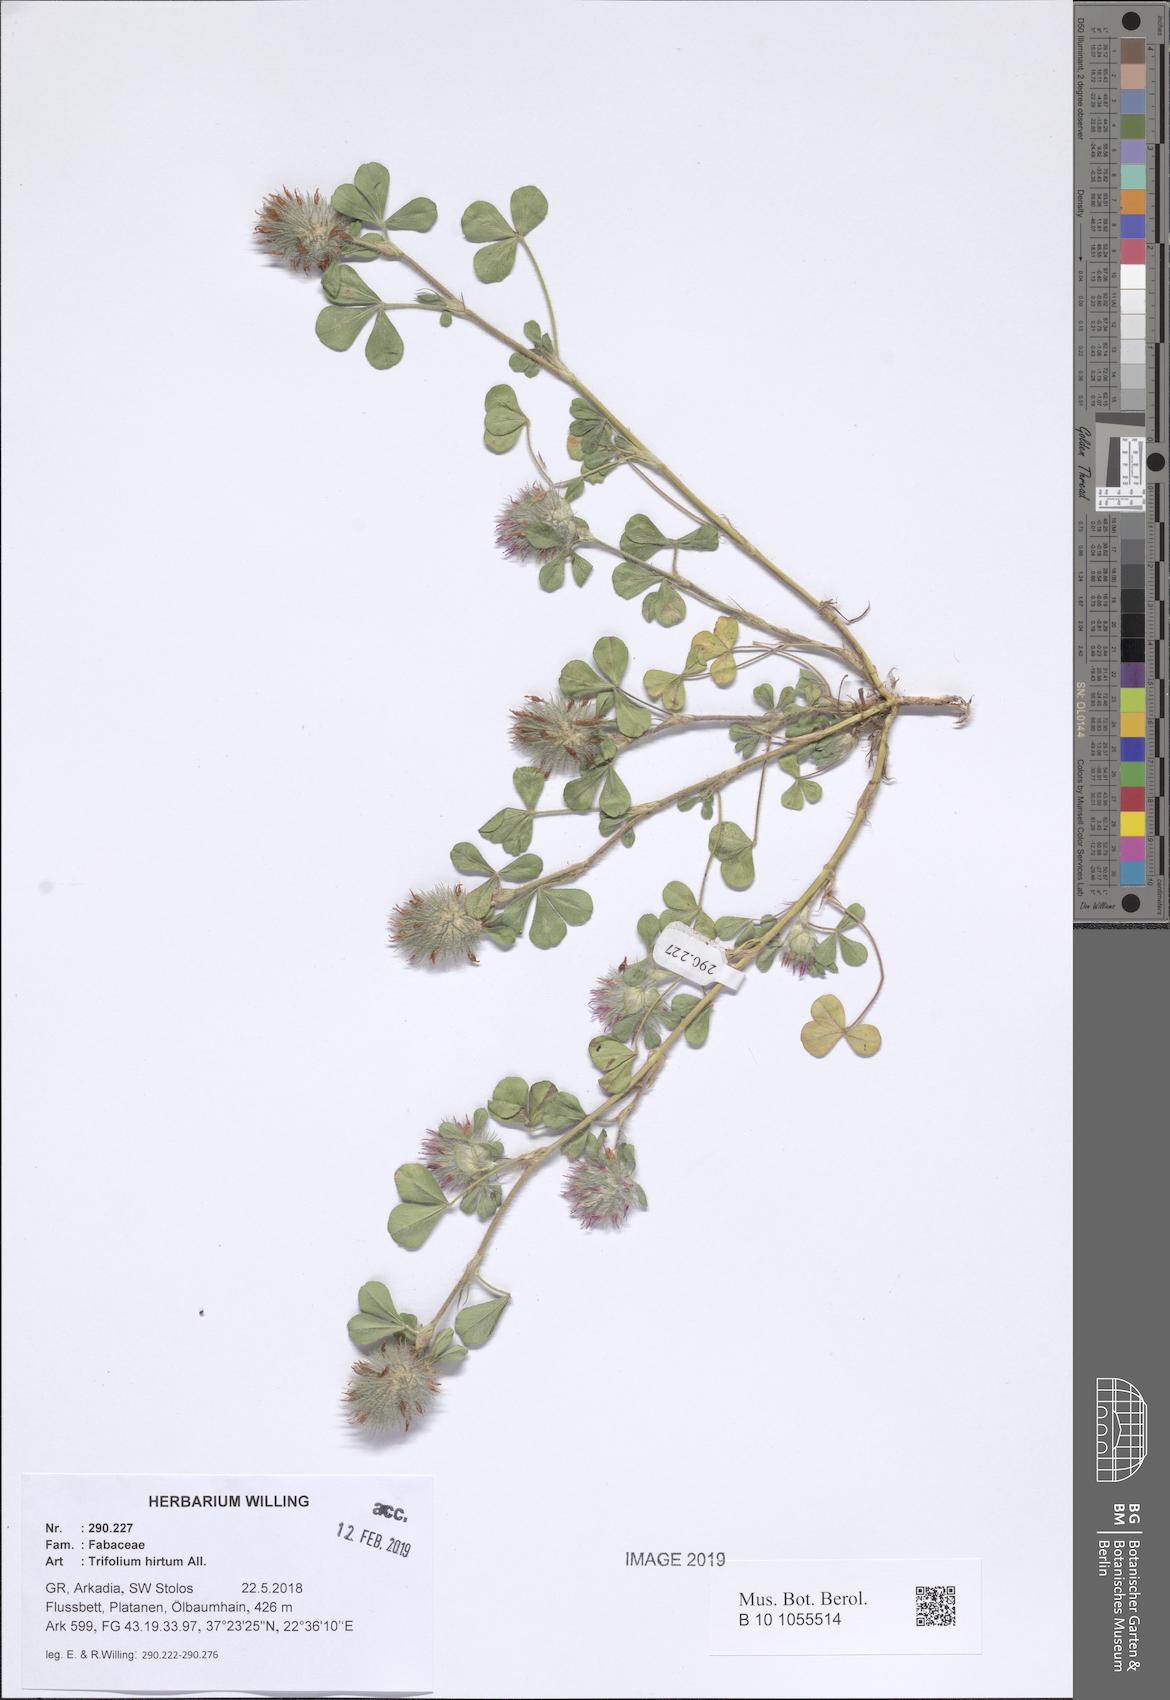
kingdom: Plantae
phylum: Tracheophyta
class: Magnoliopsida
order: Fabales
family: Fabaceae
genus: Trifolium
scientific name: Trifolium hirtum
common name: Rose clover
